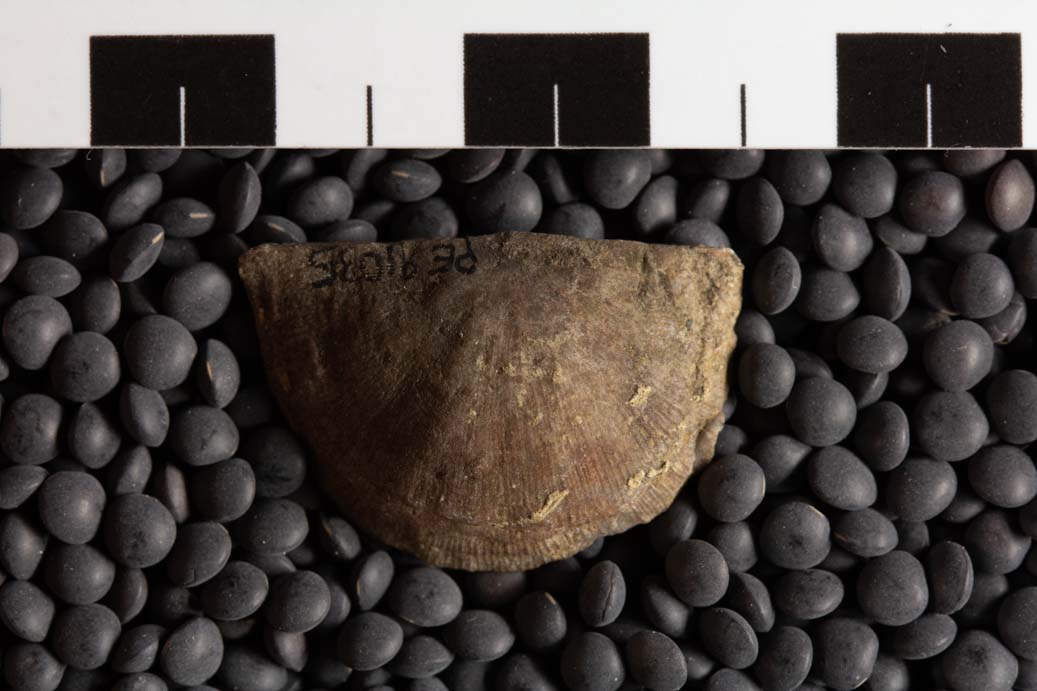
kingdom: Animalia
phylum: Brachiopoda
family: Streptorhynchidae
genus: Streptorhynchus
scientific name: Streptorhynchus
